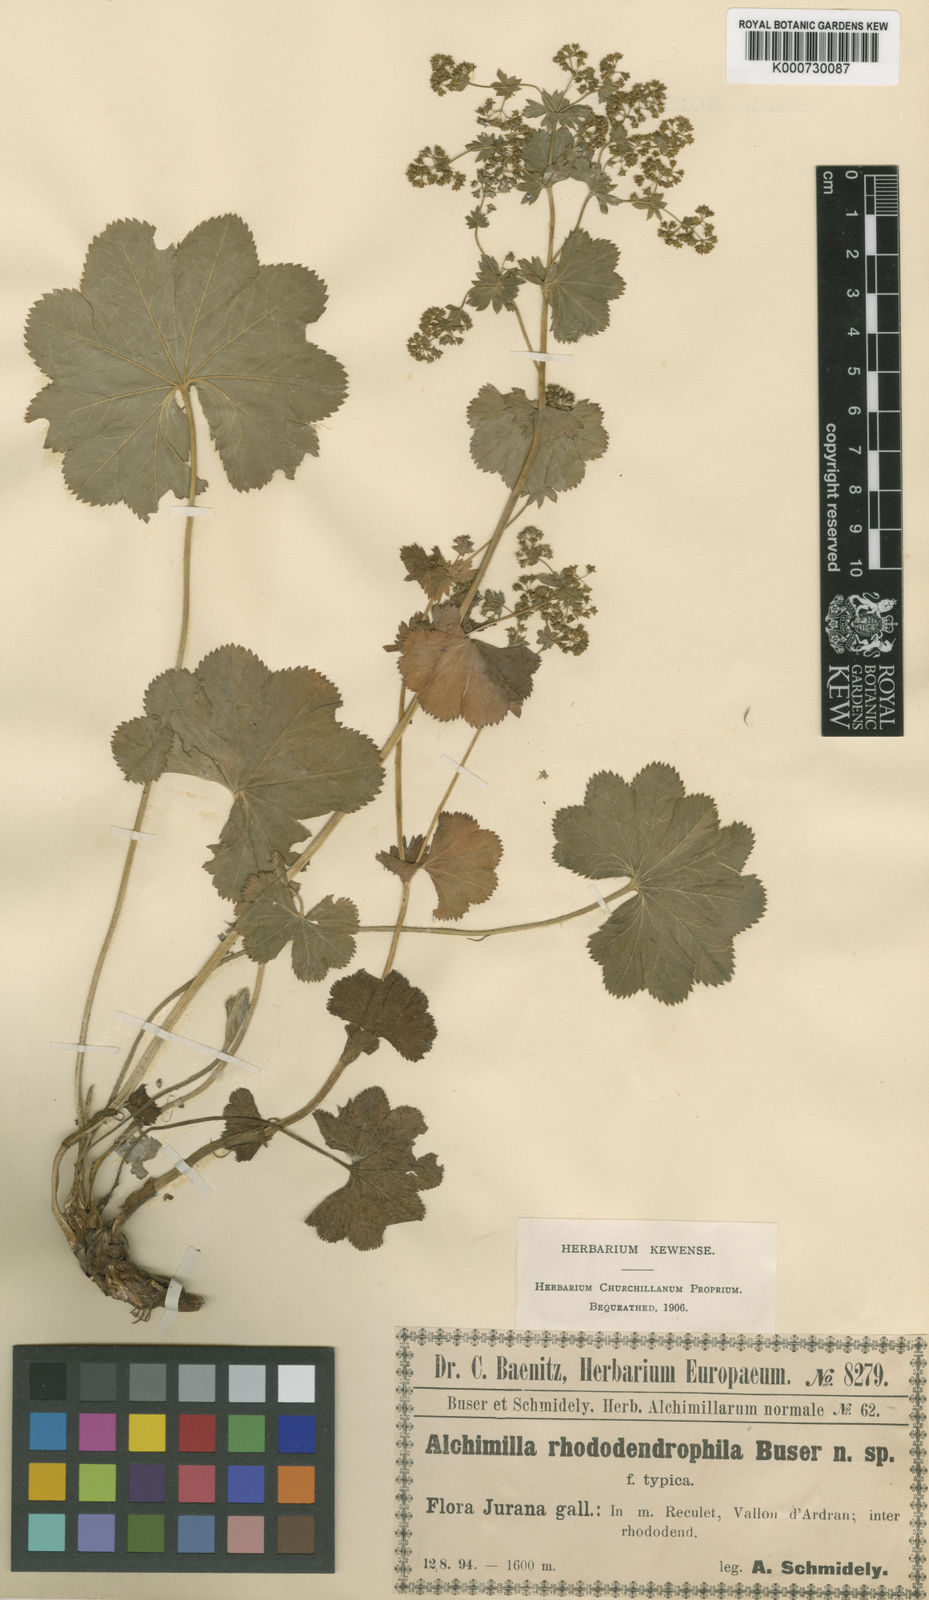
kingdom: Plantae
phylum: Tracheophyta
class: Magnoliopsida
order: Rosales
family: Rosaceae
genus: Alchemilla
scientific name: Alchemilla rhododendrophila
